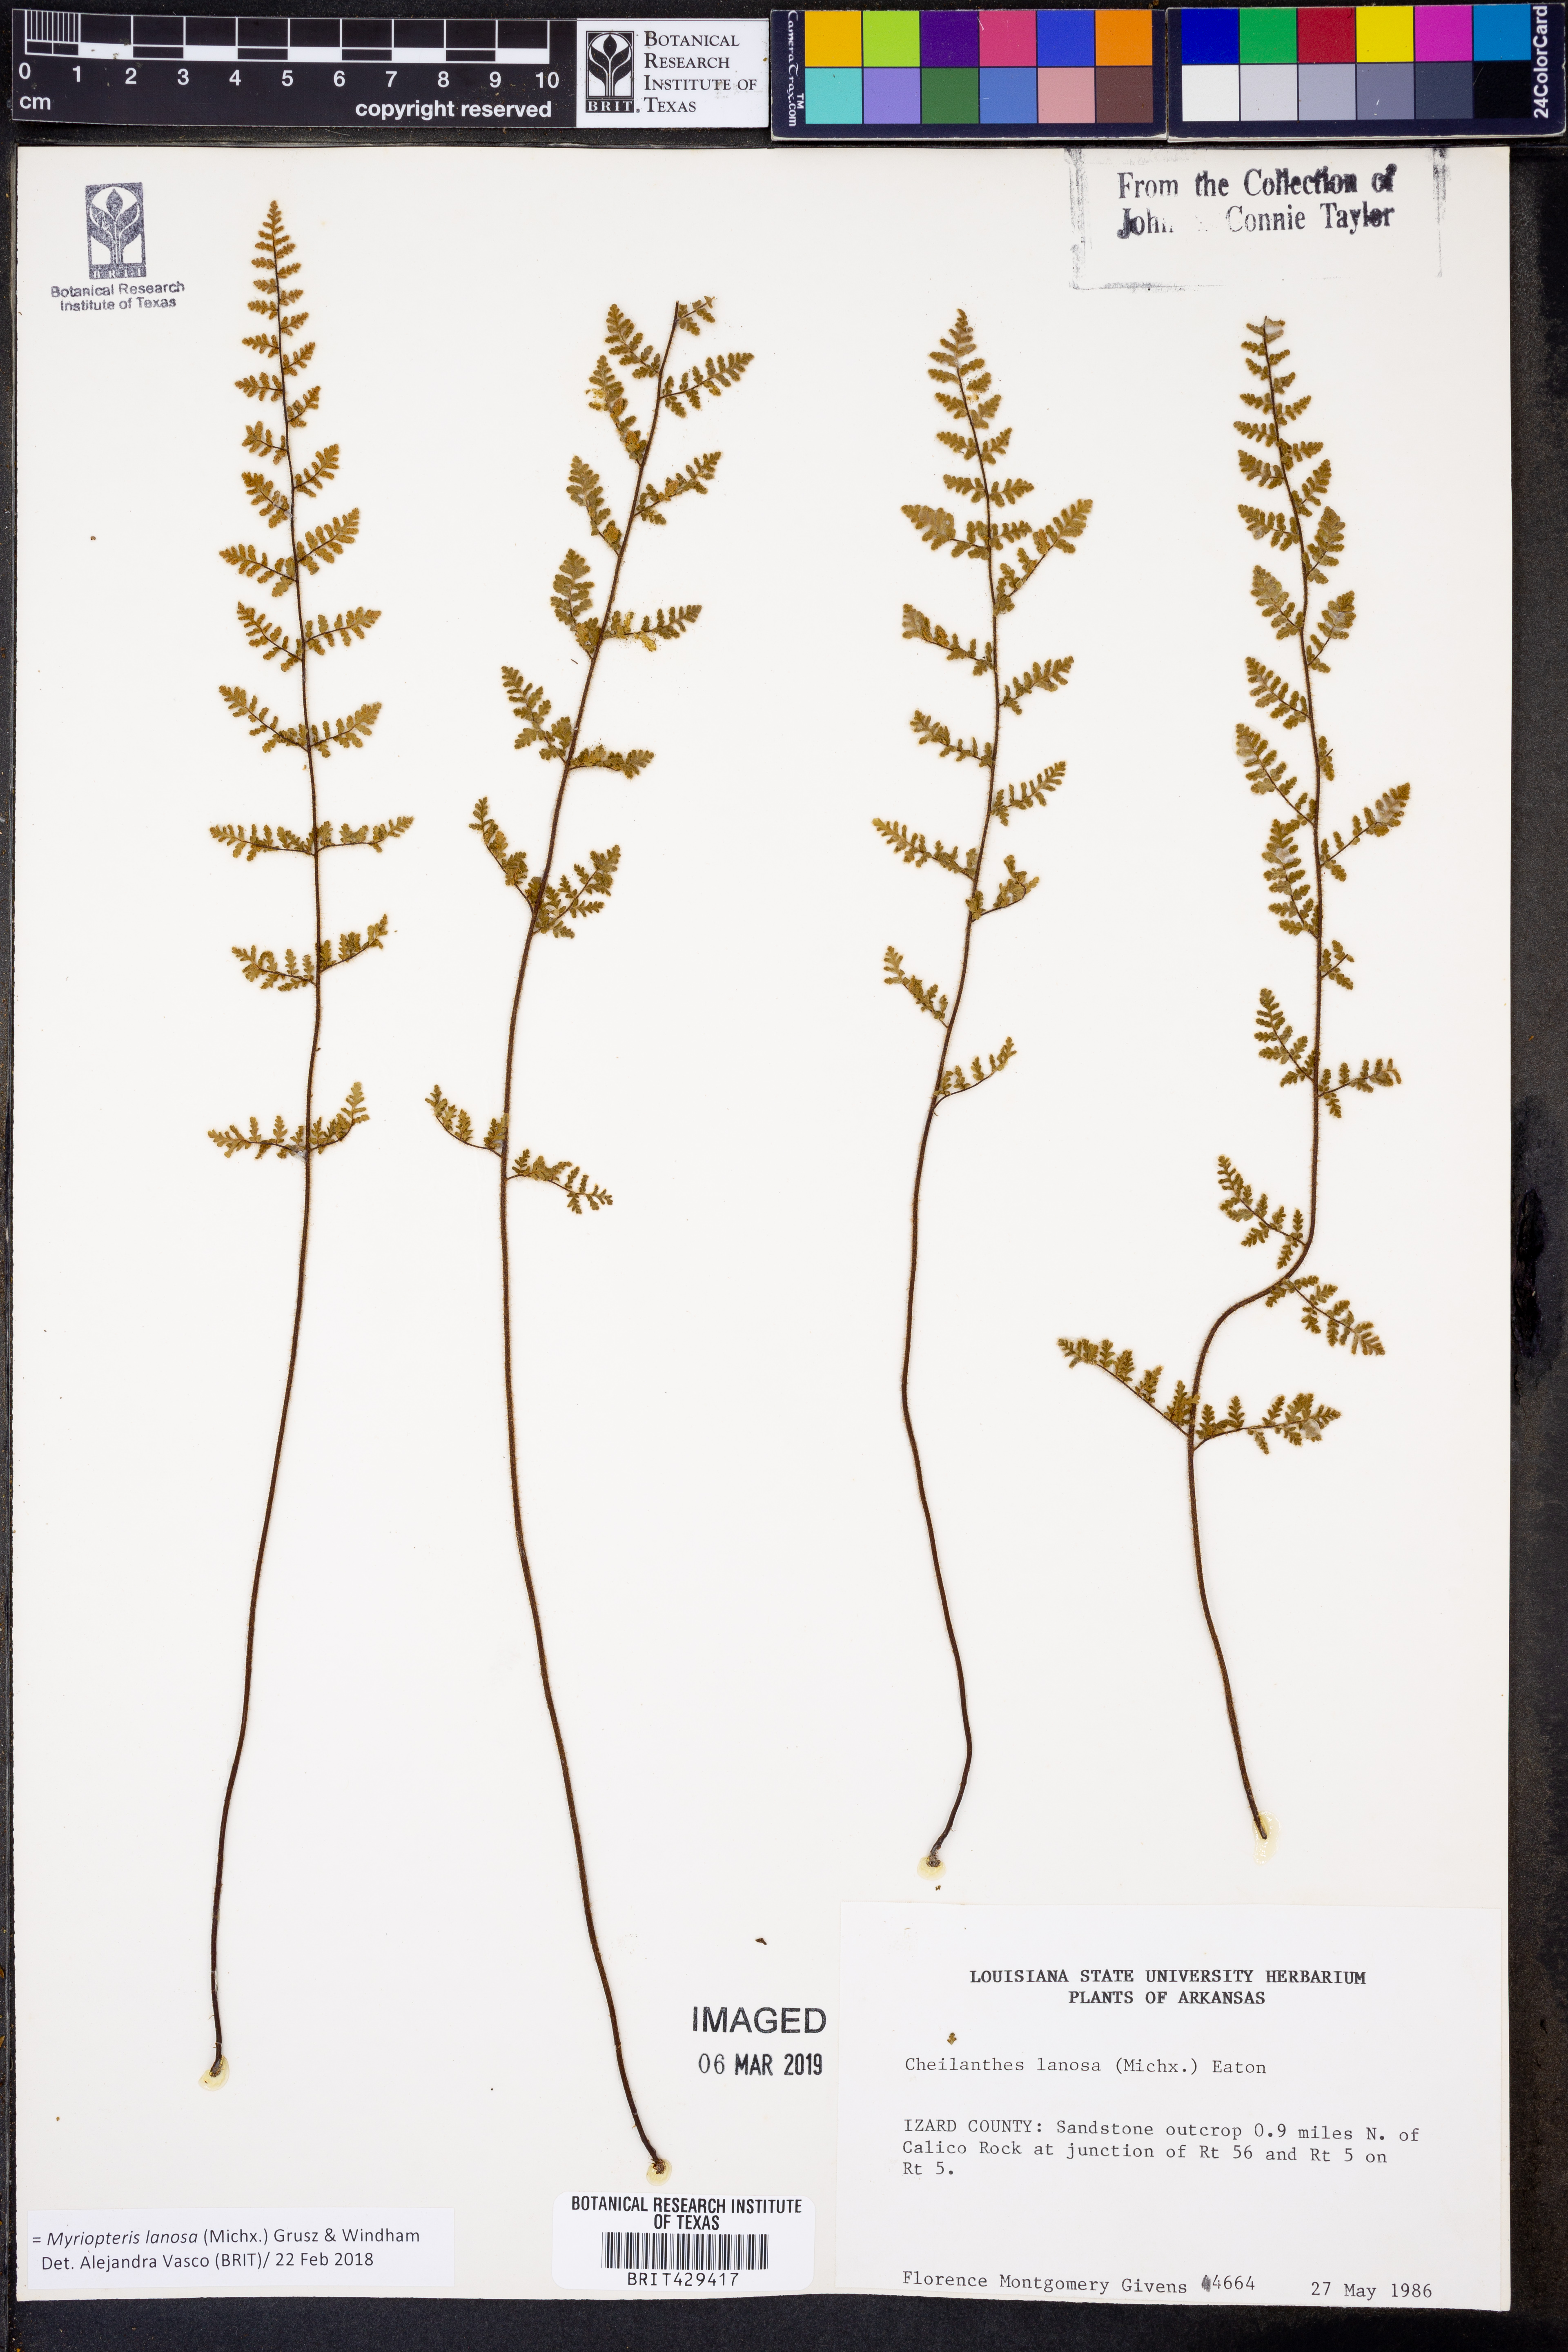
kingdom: Plantae
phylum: Tracheophyta
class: Polypodiopsida
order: Polypodiales
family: Pteridaceae
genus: Myriopteris
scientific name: Myriopteris lanosa
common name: Hairy lip fern
